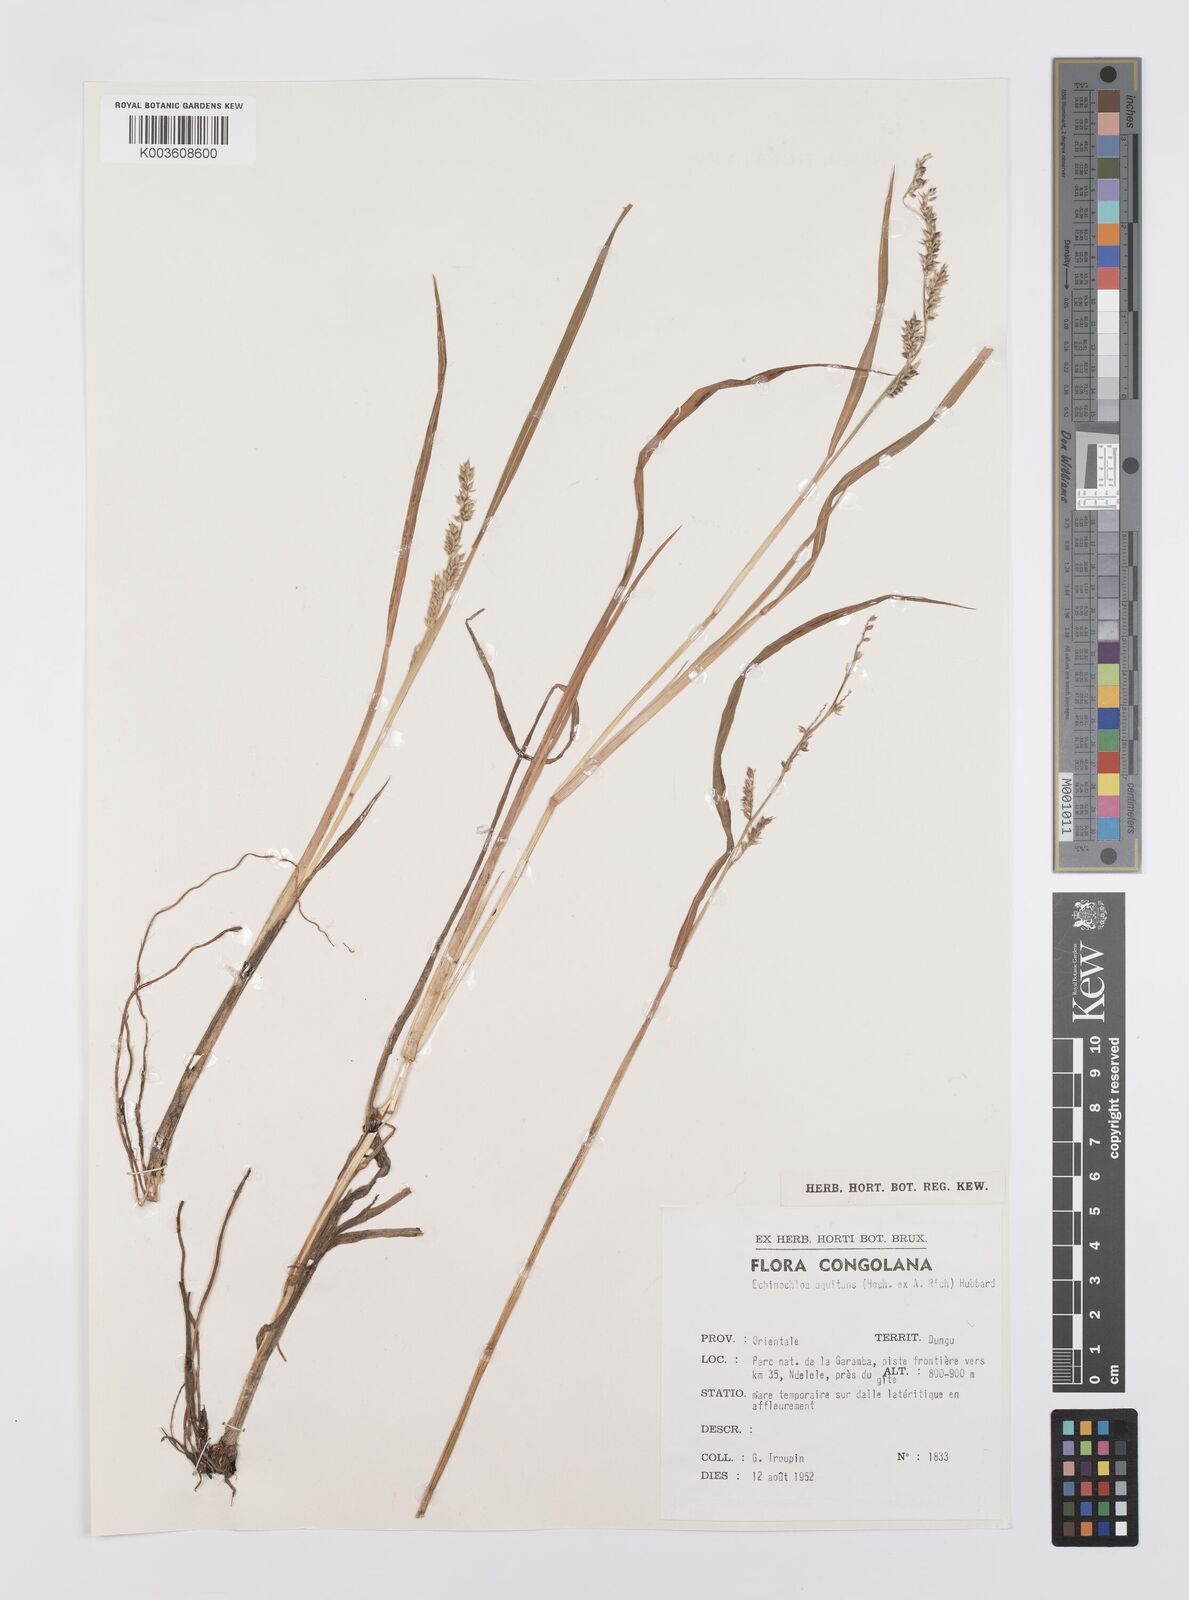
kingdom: Plantae
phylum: Tracheophyta
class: Liliopsida
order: Poales
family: Poaceae
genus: Echinochloa
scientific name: Echinochloa colonum
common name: Jungle rice
